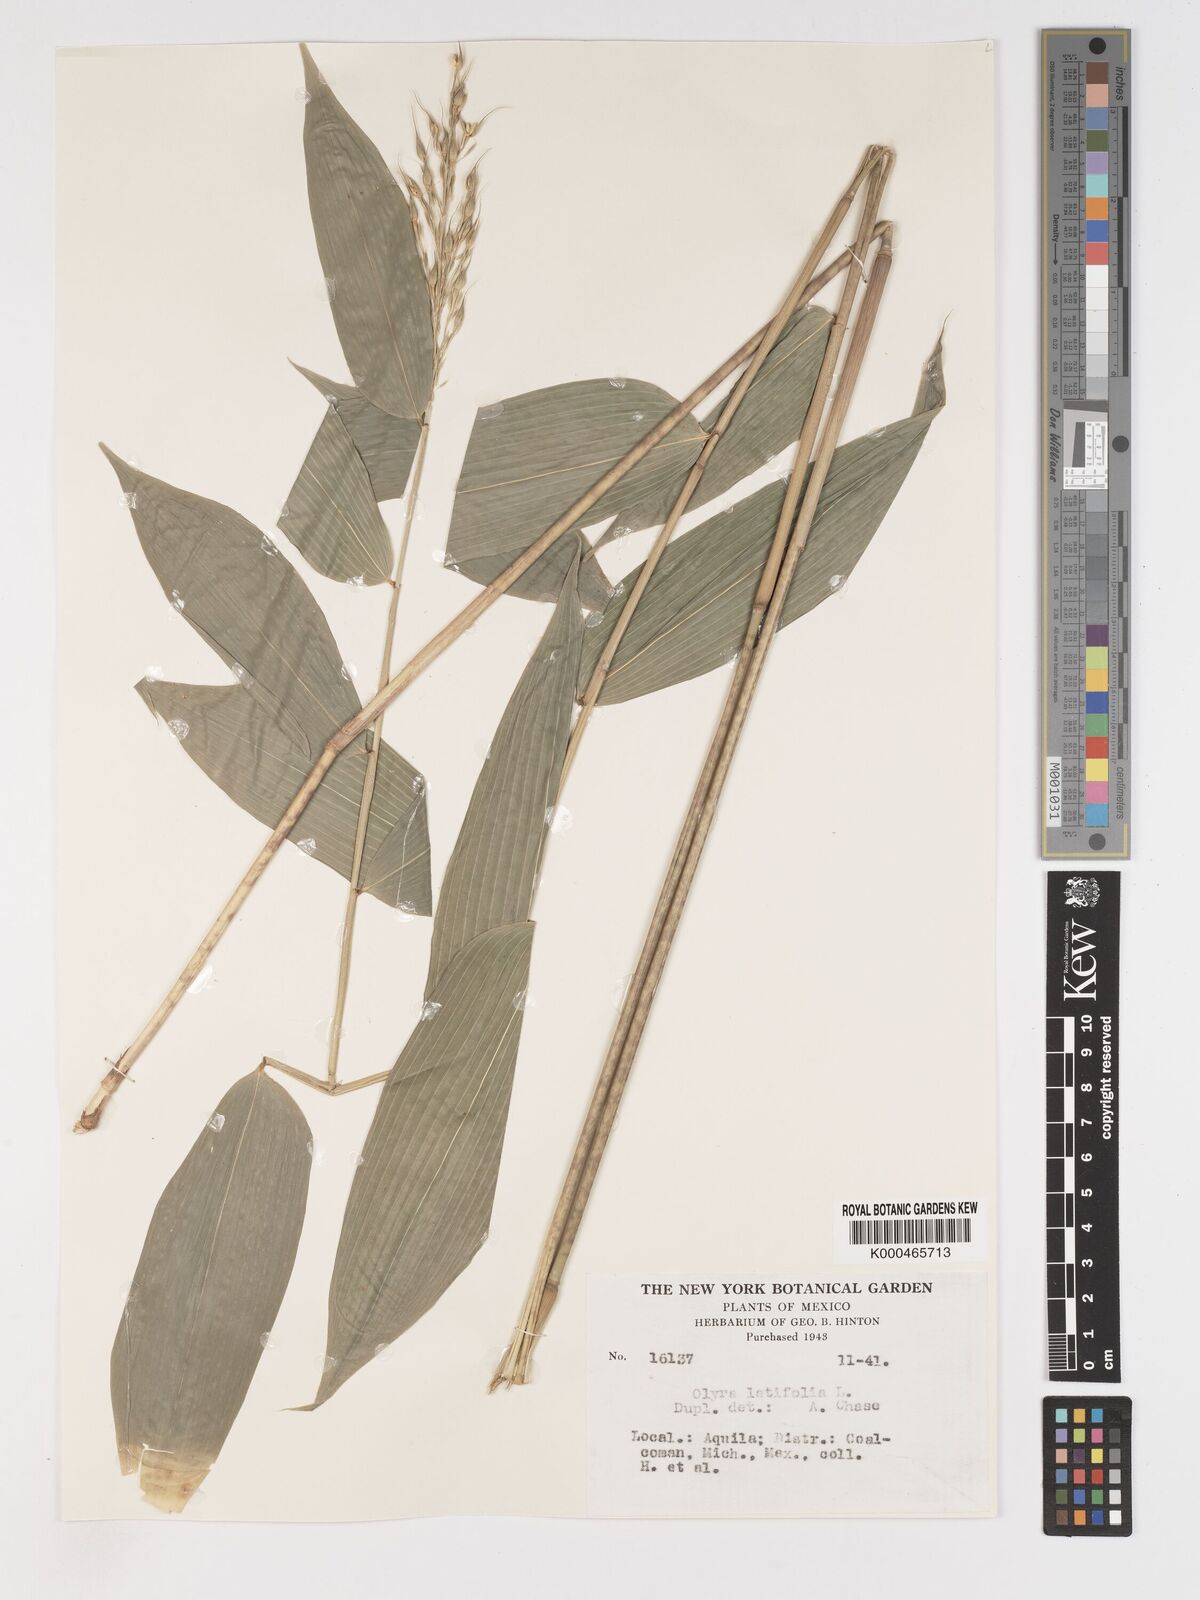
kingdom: Plantae
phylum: Tracheophyta
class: Liliopsida
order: Poales
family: Poaceae
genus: Olyra
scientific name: Olyra latifolia
